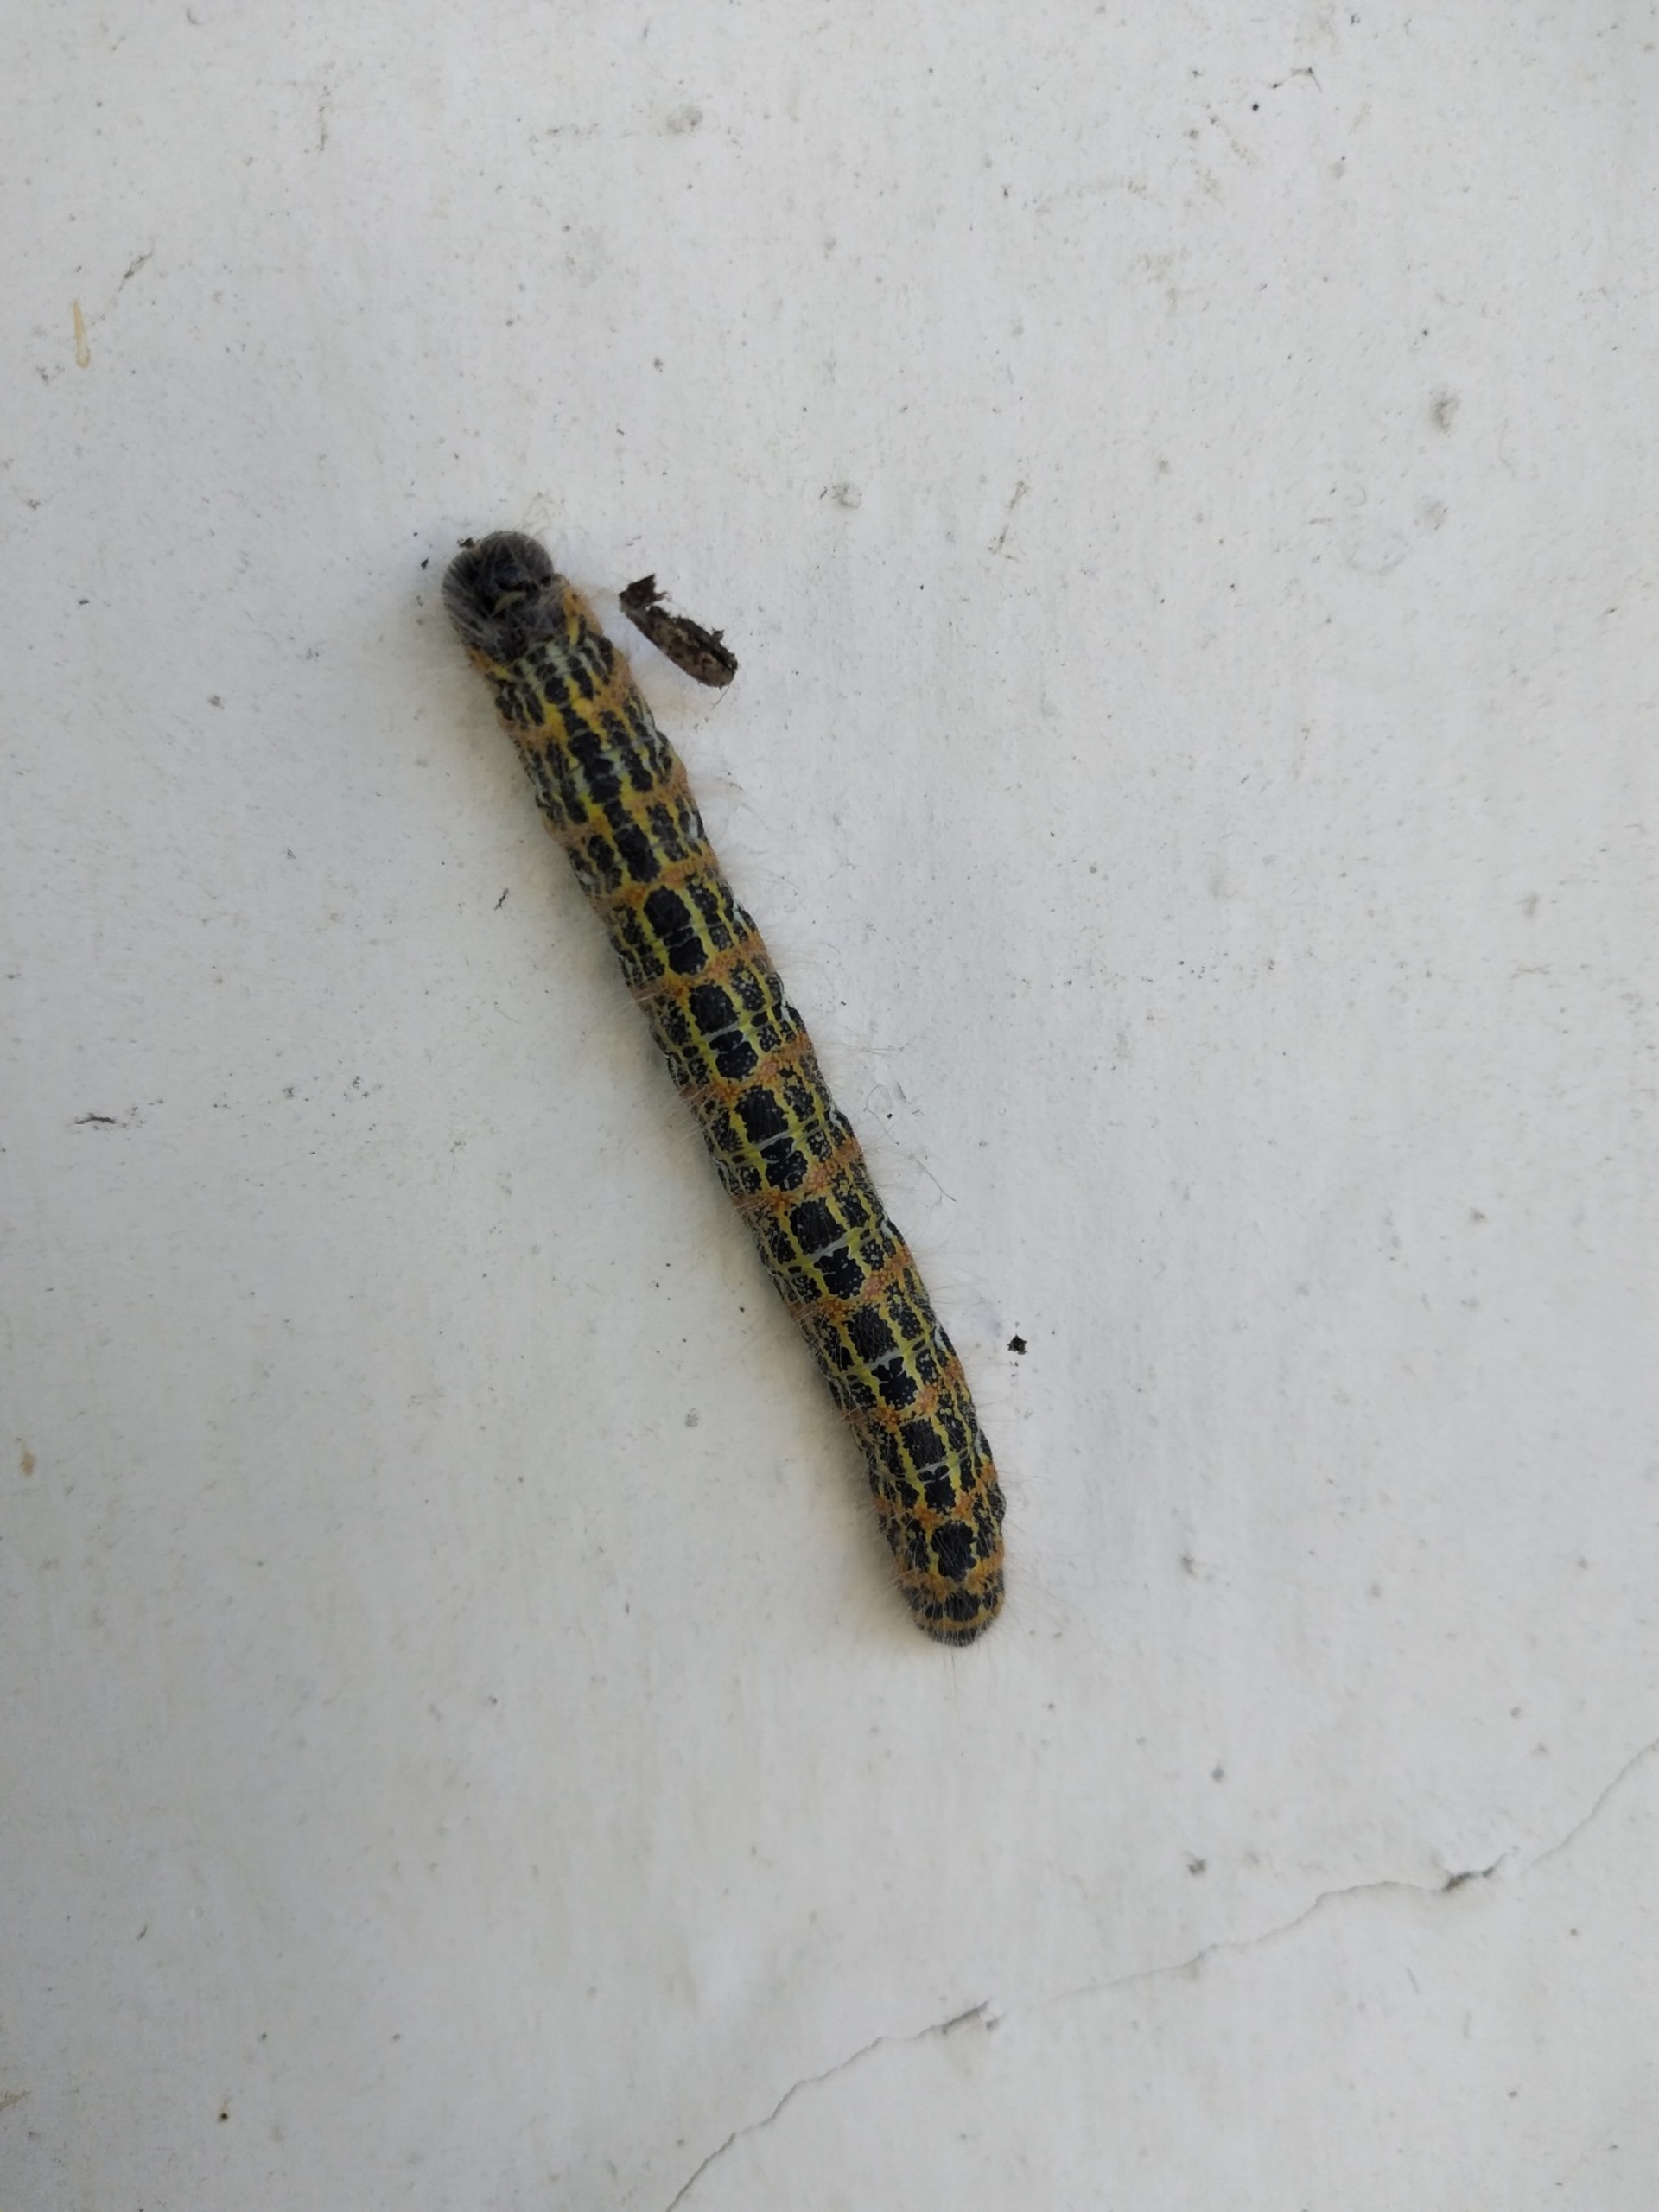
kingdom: Animalia
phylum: Arthropoda
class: Insecta
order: Lepidoptera
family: Notodontidae
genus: Phalera
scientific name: Phalera bucephala
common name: Måneplet
